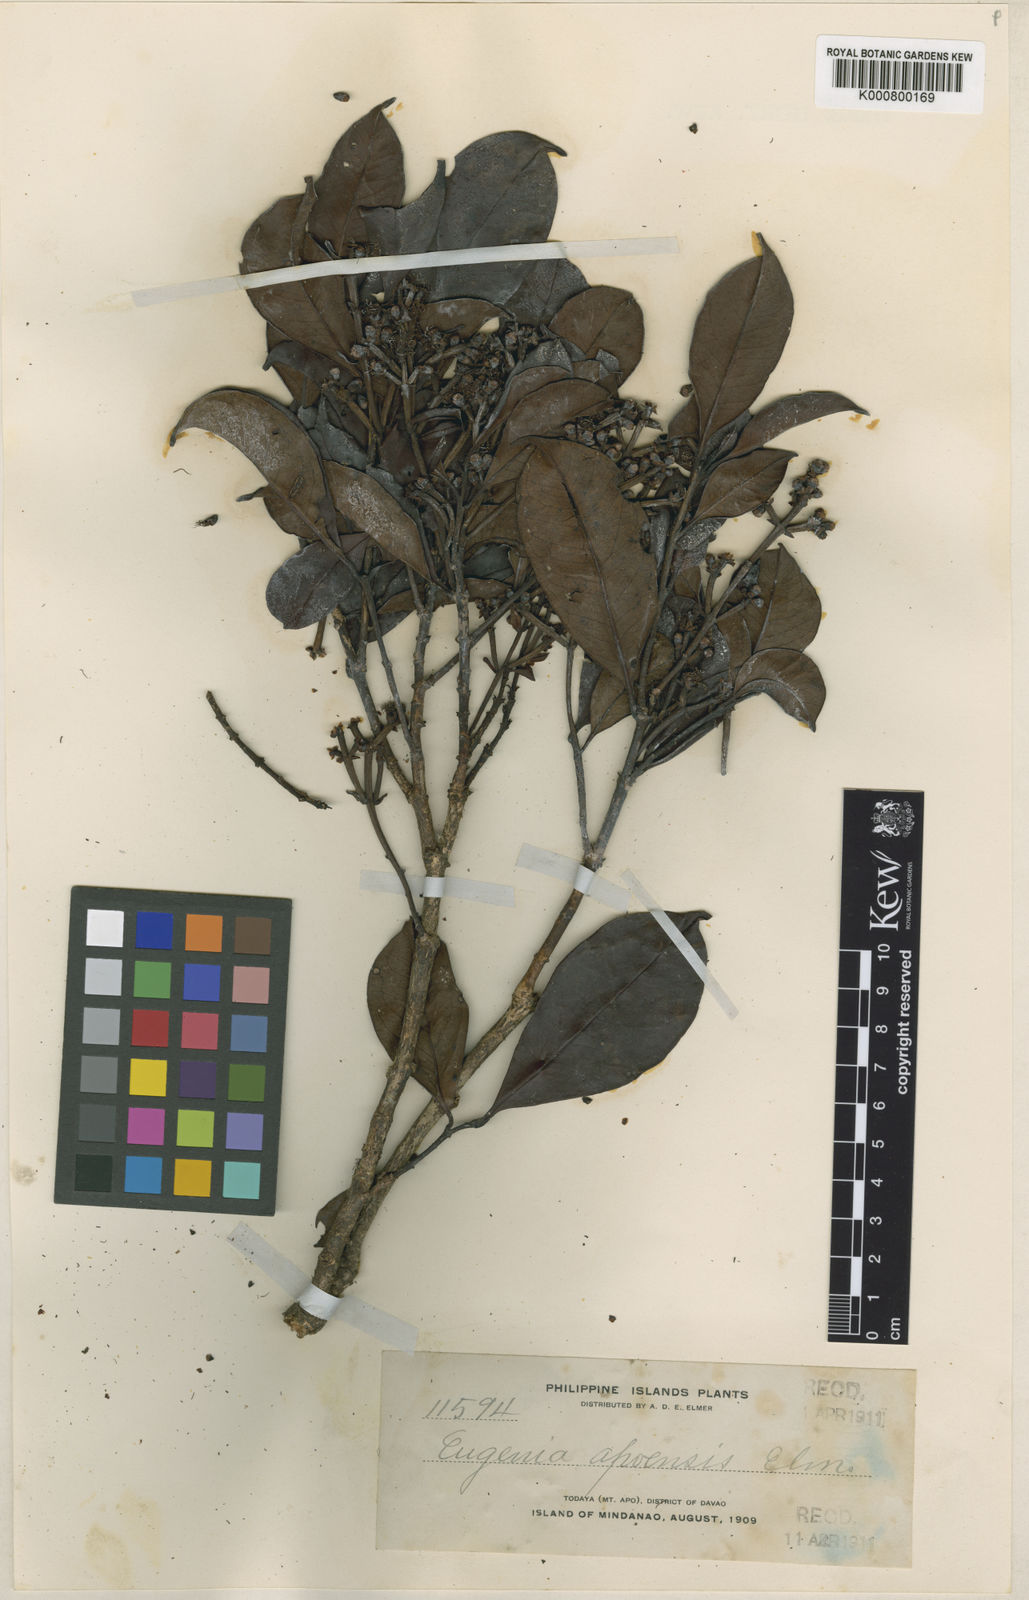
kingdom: Plantae
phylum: Tracheophyta
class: Magnoliopsida
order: Myrtales
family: Myrtaceae
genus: Syzygium
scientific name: Syzygium apoense
